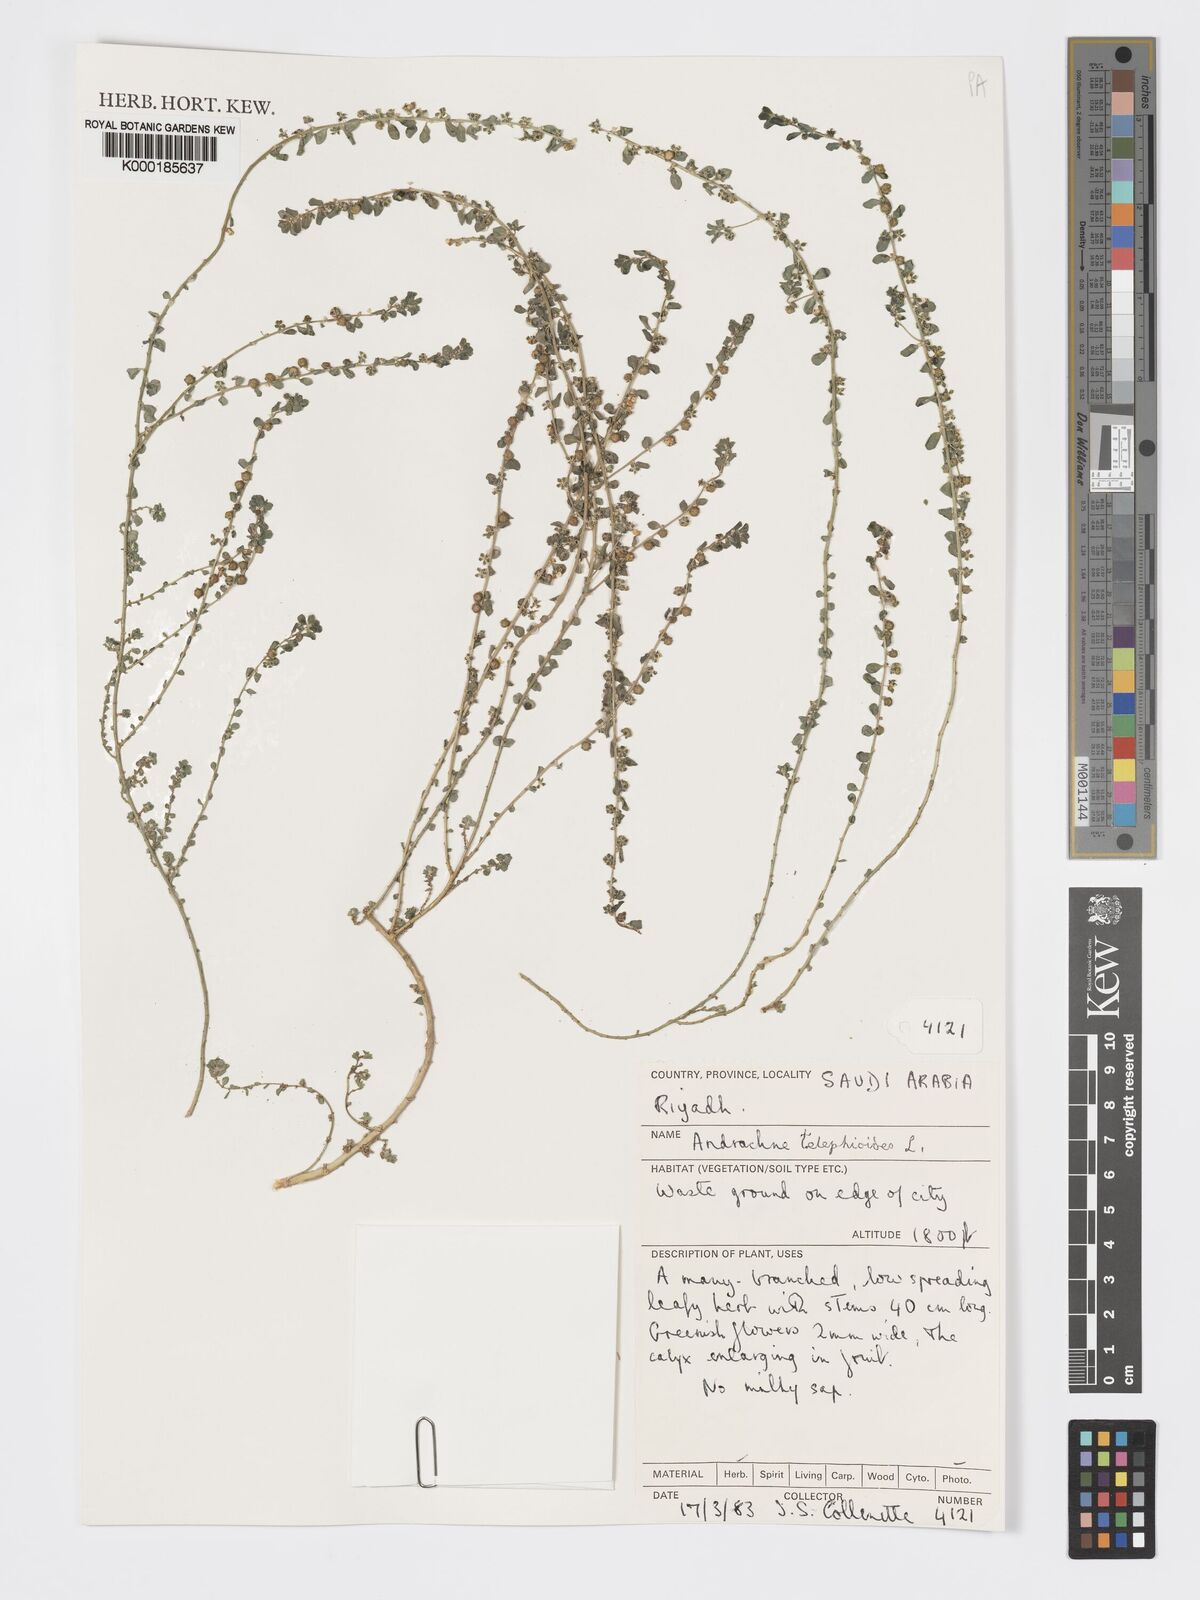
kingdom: Plantae
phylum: Tracheophyta
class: Magnoliopsida
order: Malpighiales
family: Phyllanthaceae
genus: Andrachne
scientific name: Andrachne telephioides
